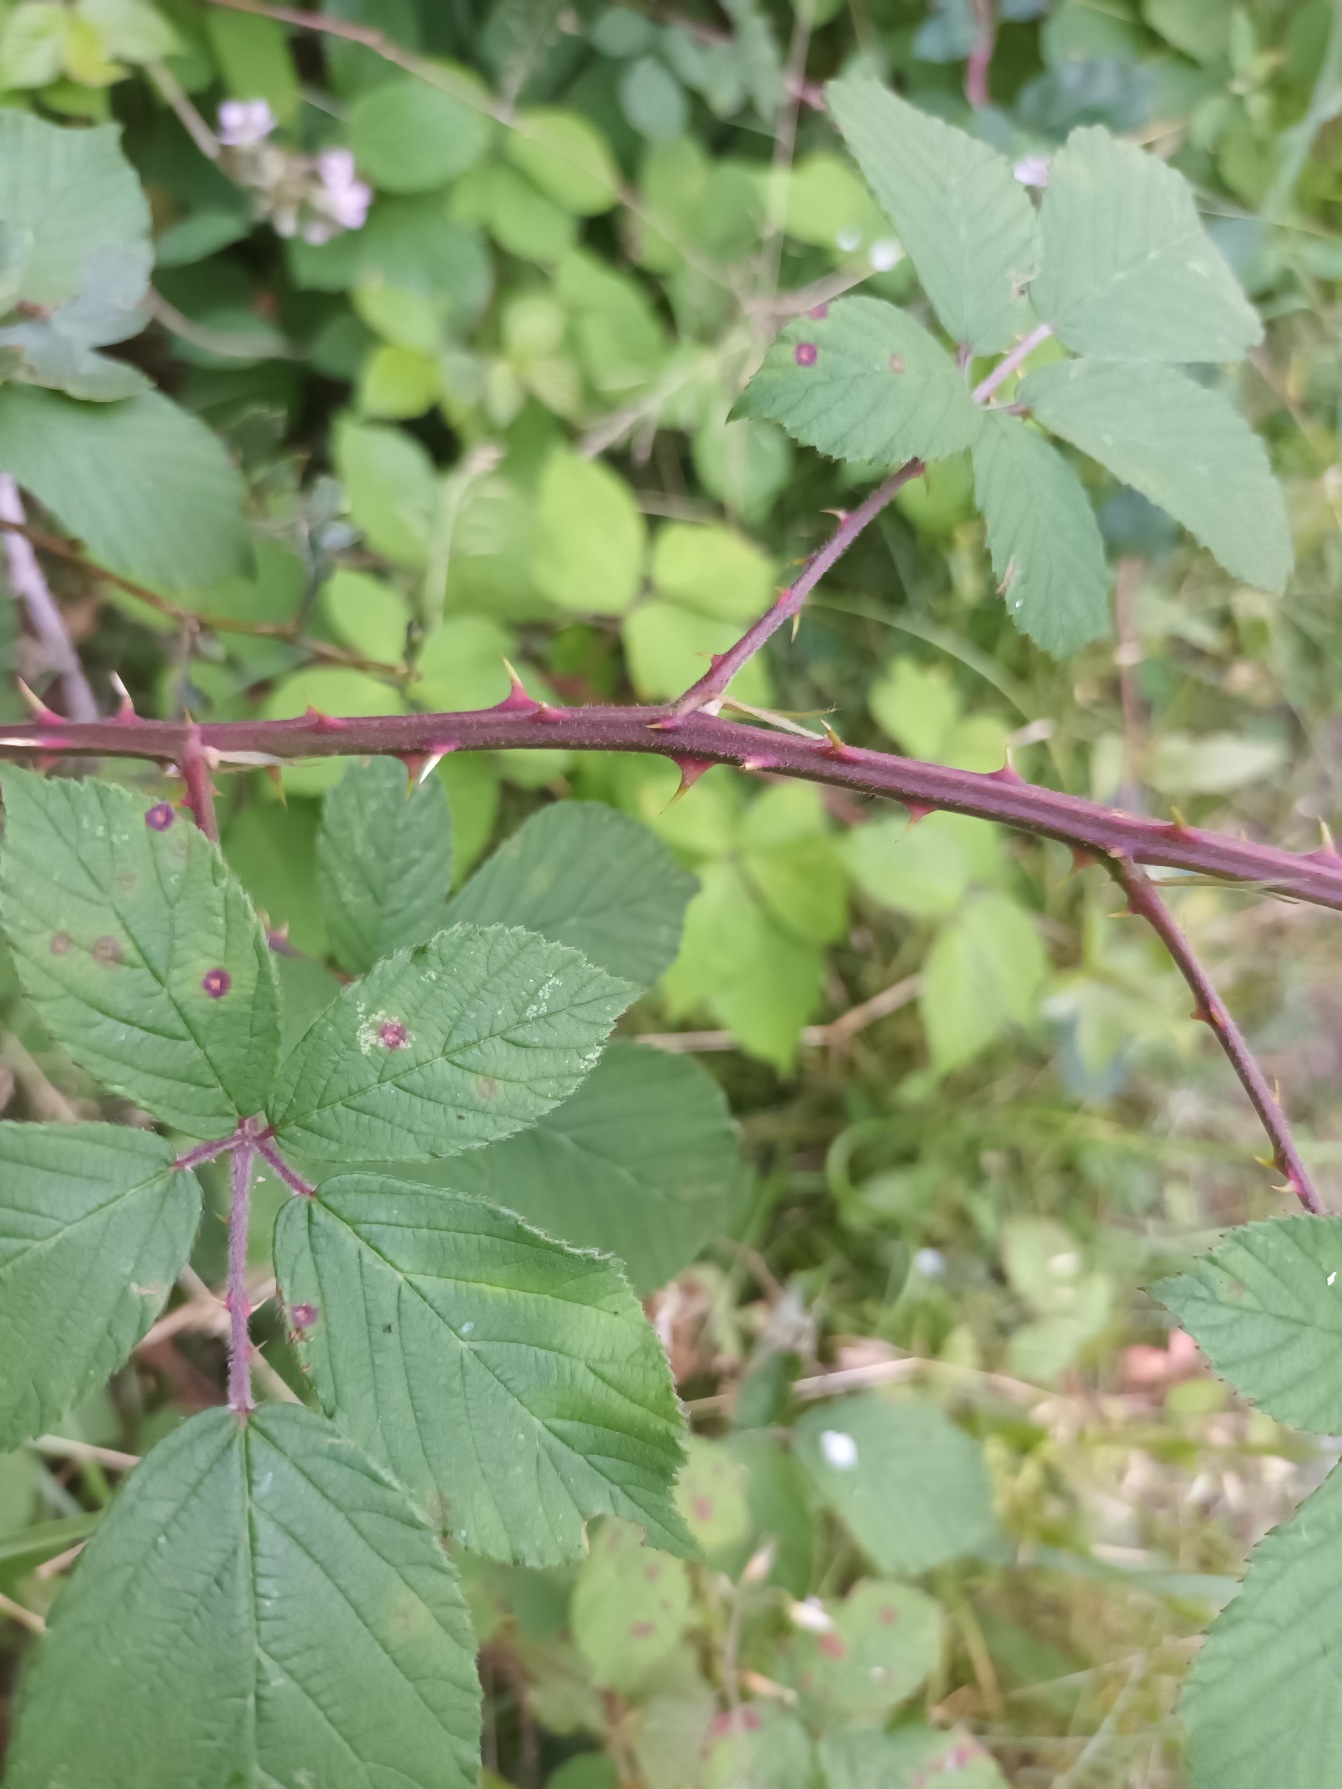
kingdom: Plantae
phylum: Tracheophyta
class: Magnoliopsida
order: Rosales
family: Rosaceae
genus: Rubus
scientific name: Rubus lindebergii
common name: Lindebergs brombær
